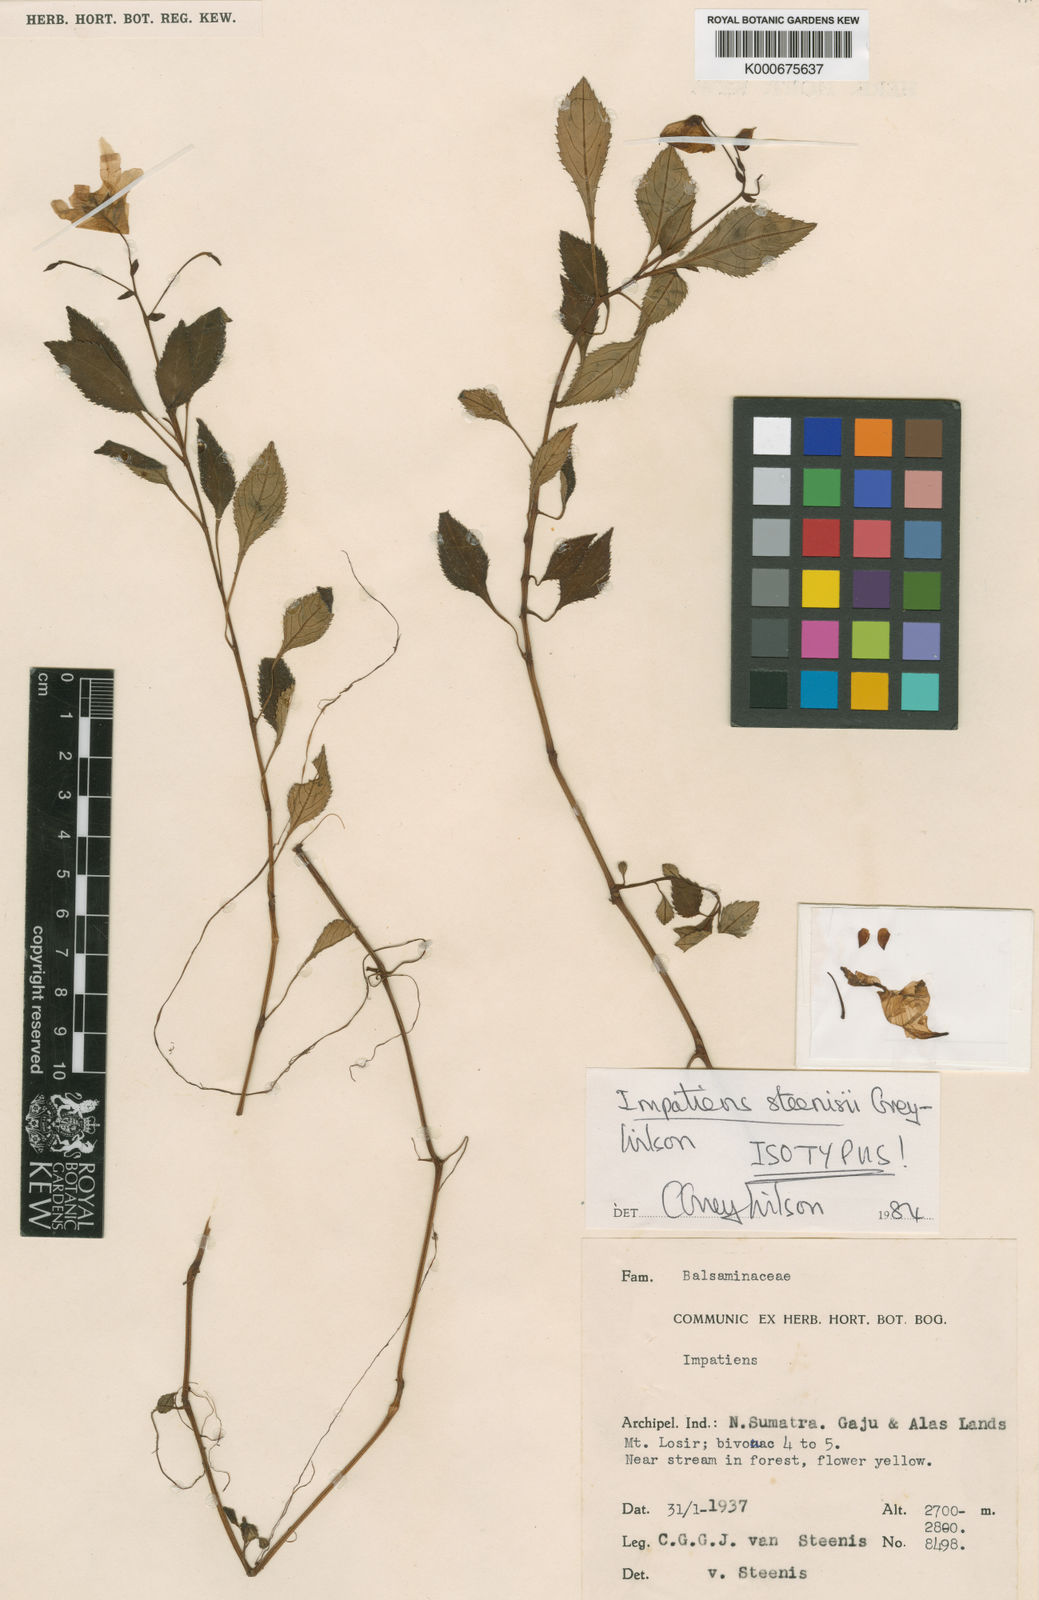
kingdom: Plantae
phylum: Tracheophyta
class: Magnoliopsida
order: Ericales
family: Balsaminaceae
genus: Impatiens
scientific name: Impatiens steenisii
